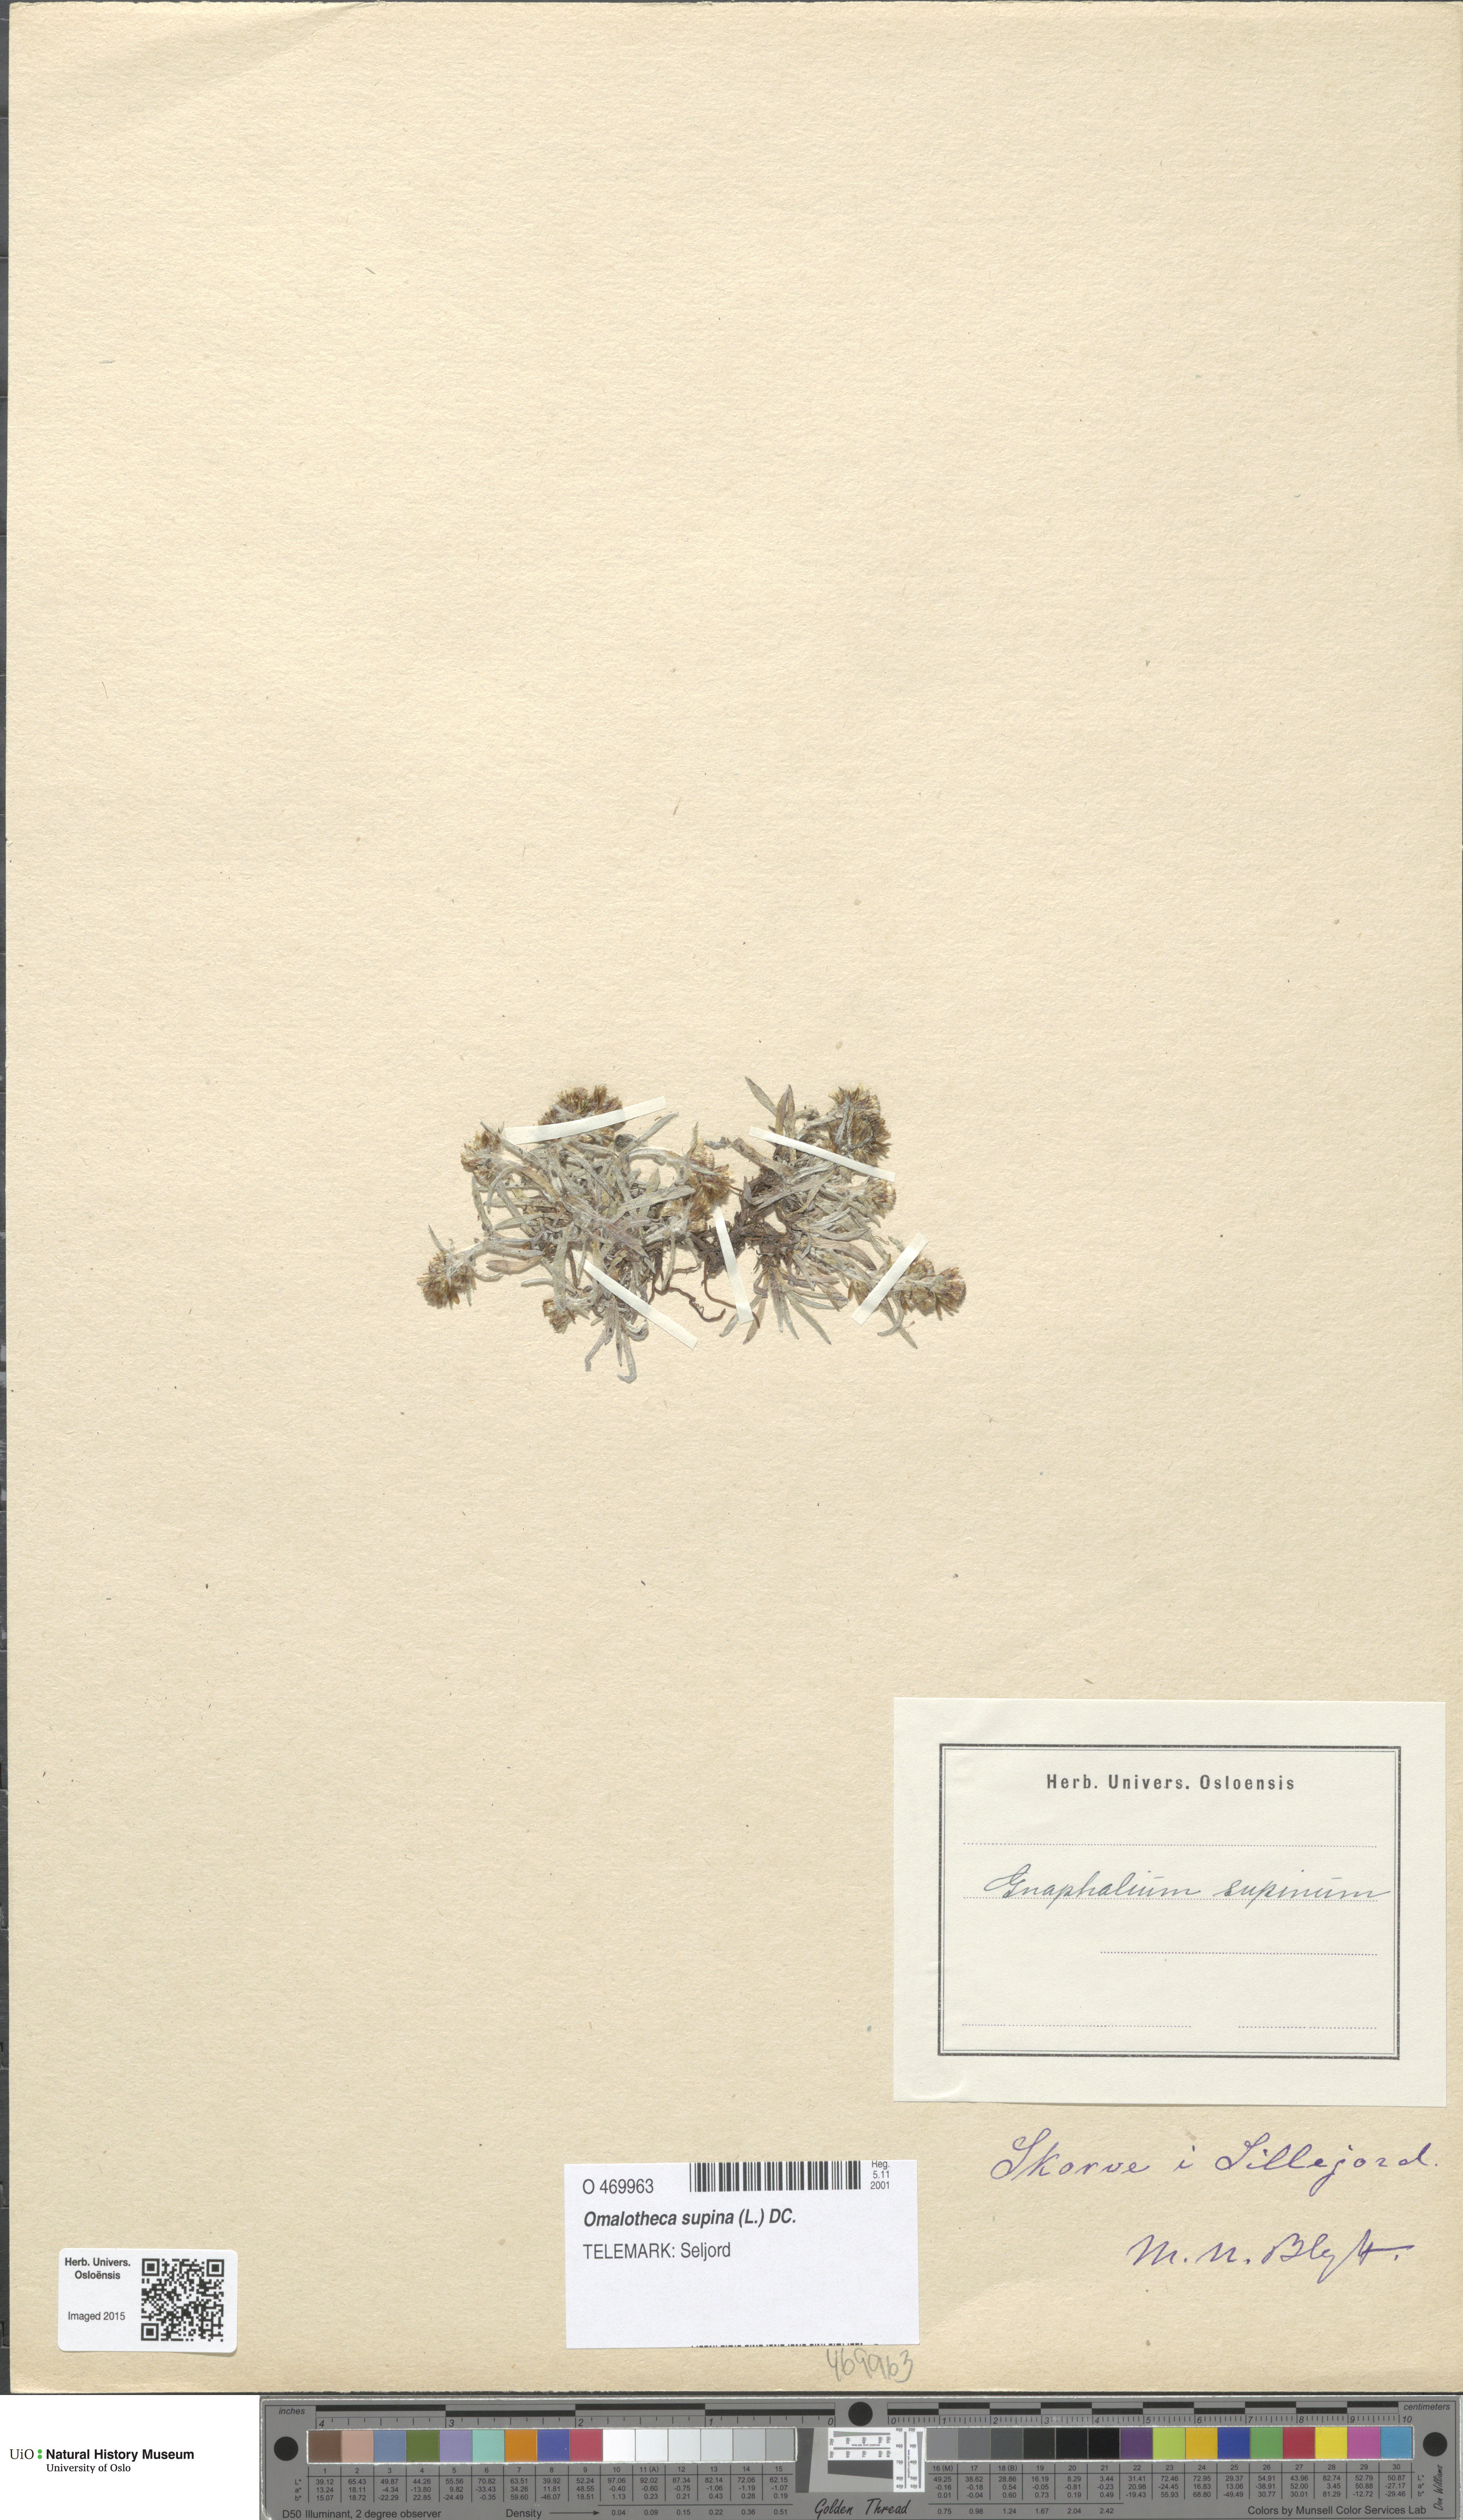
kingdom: Plantae
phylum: Tracheophyta
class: Magnoliopsida
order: Asterales
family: Asteraceae
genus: Omalotheca
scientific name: Omalotheca supina
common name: Alpine arctic-cudweed
